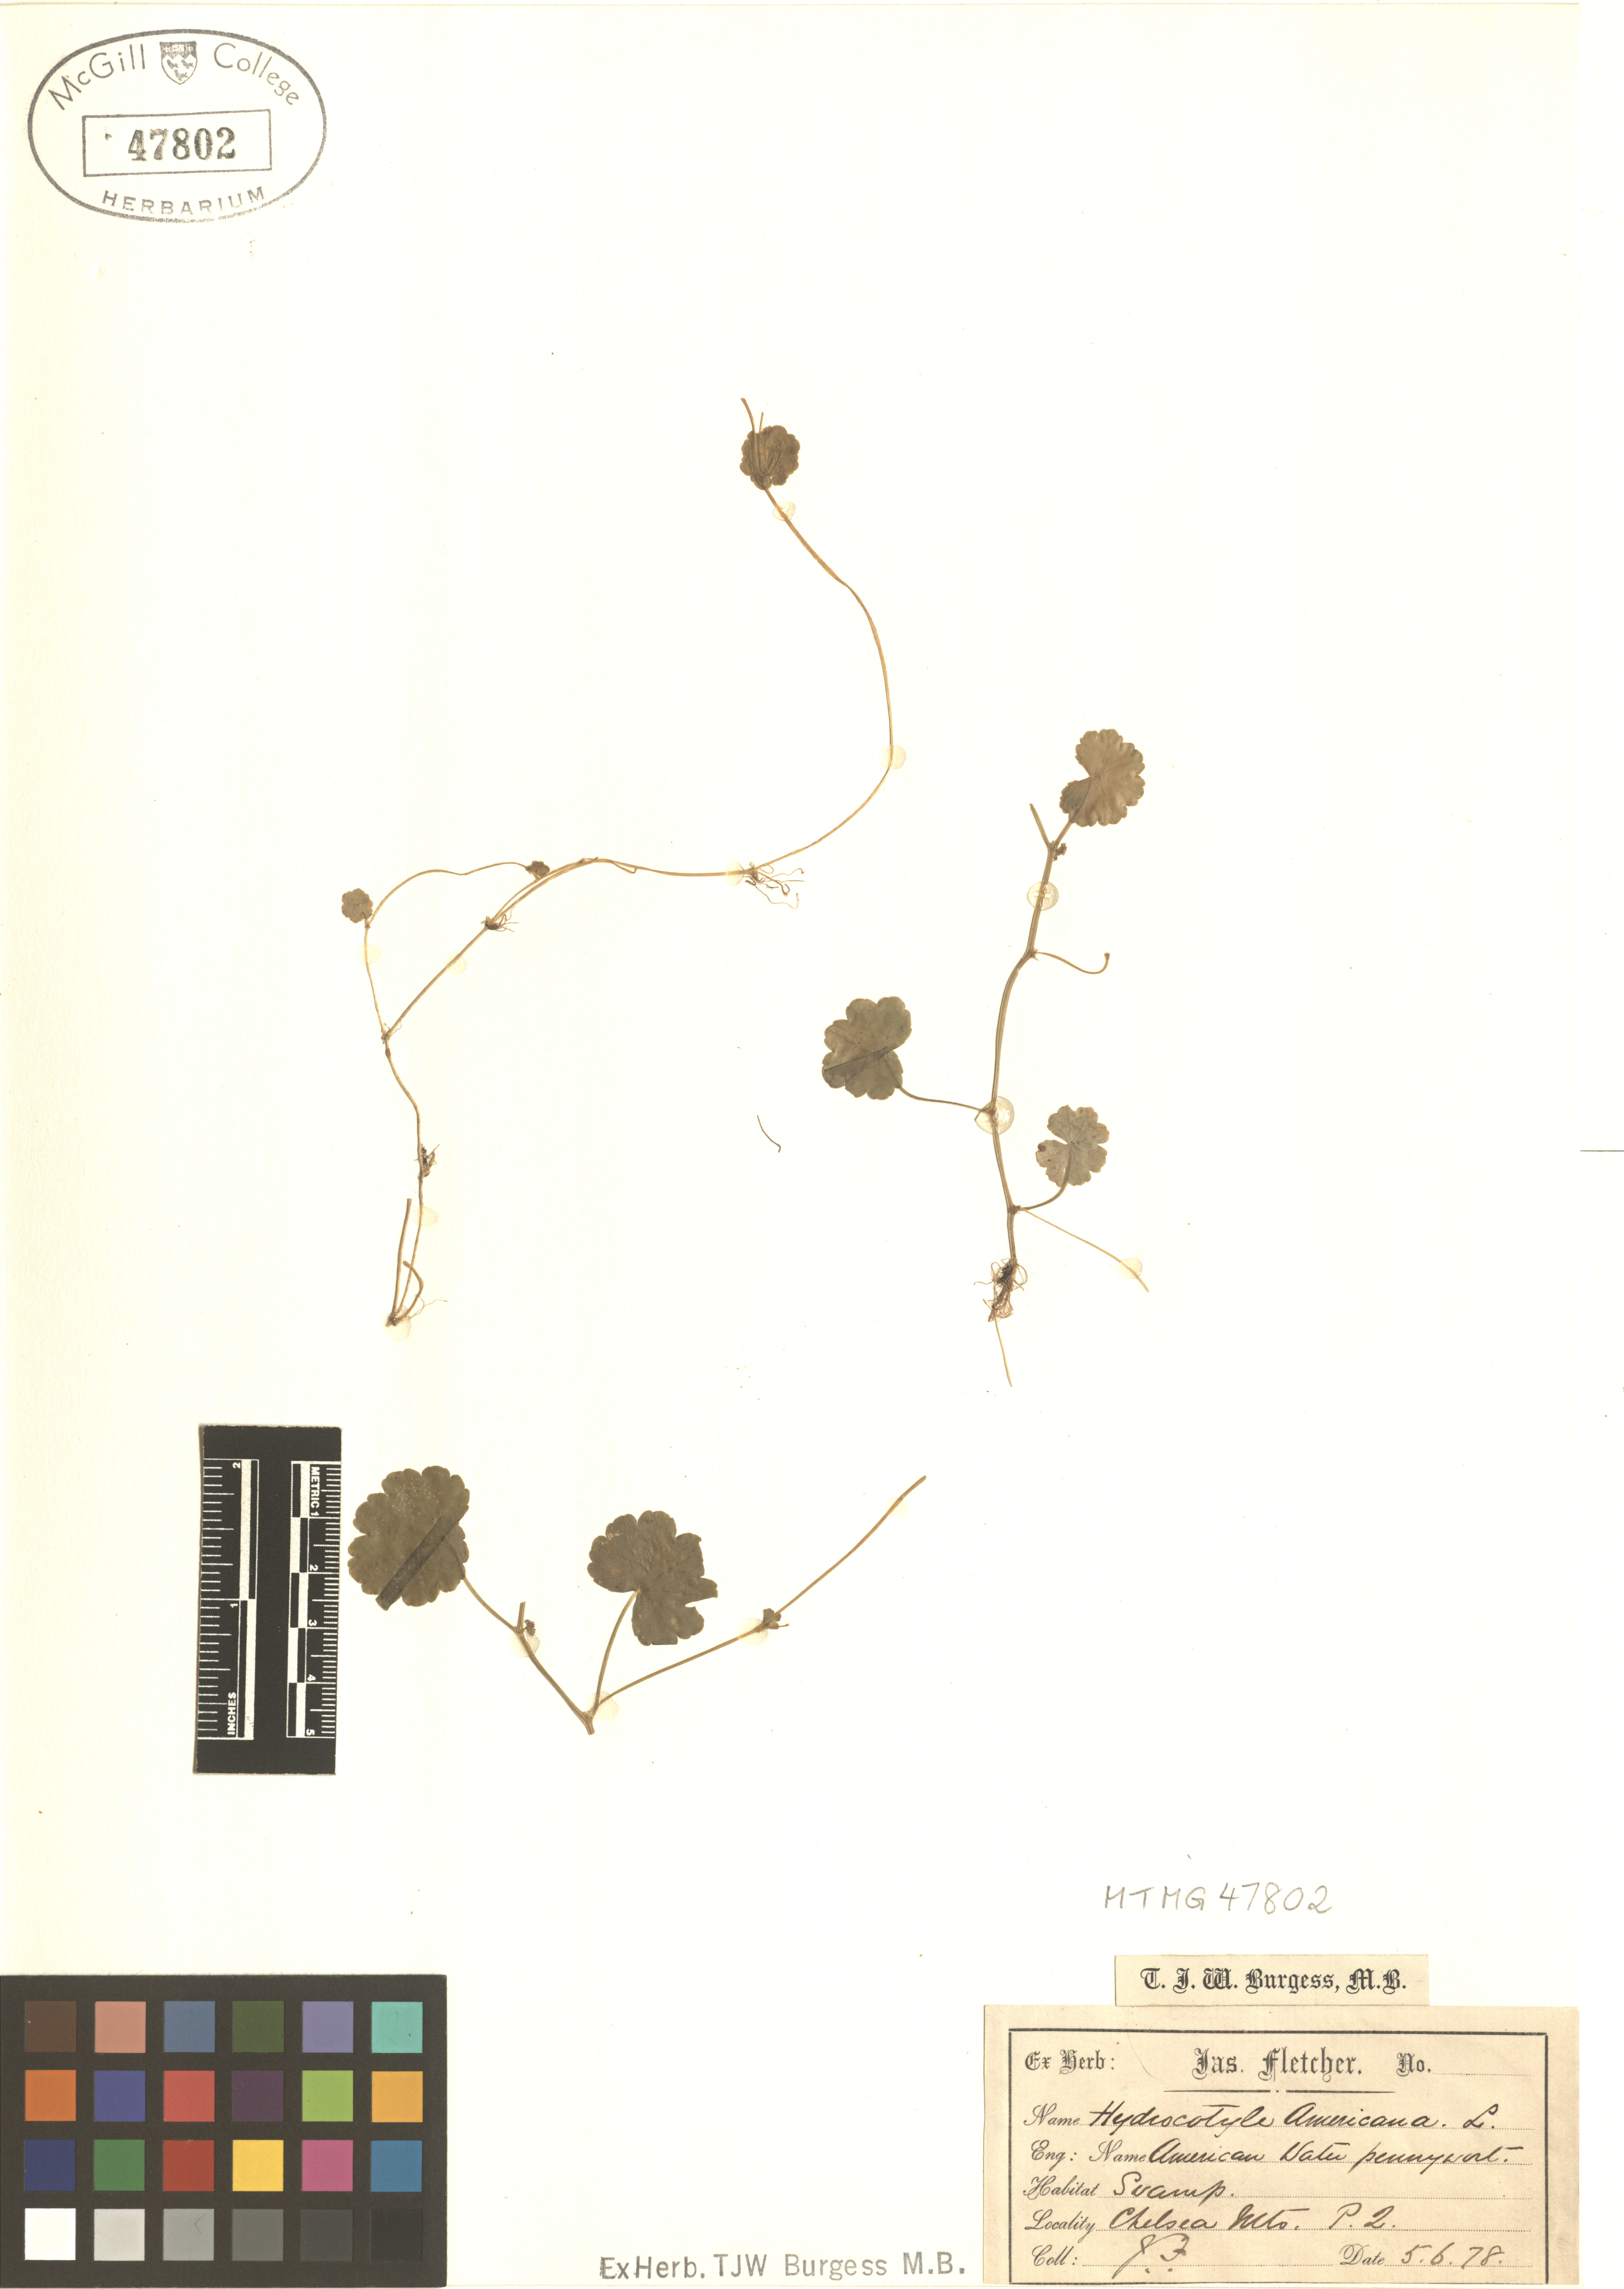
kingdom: Plantae
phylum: Tracheophyta
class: Magnoliopsida
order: Apiales
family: Araliaceae
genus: Hydrocotyle
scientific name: Hydrocotyle americana
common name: American water-pennywort
